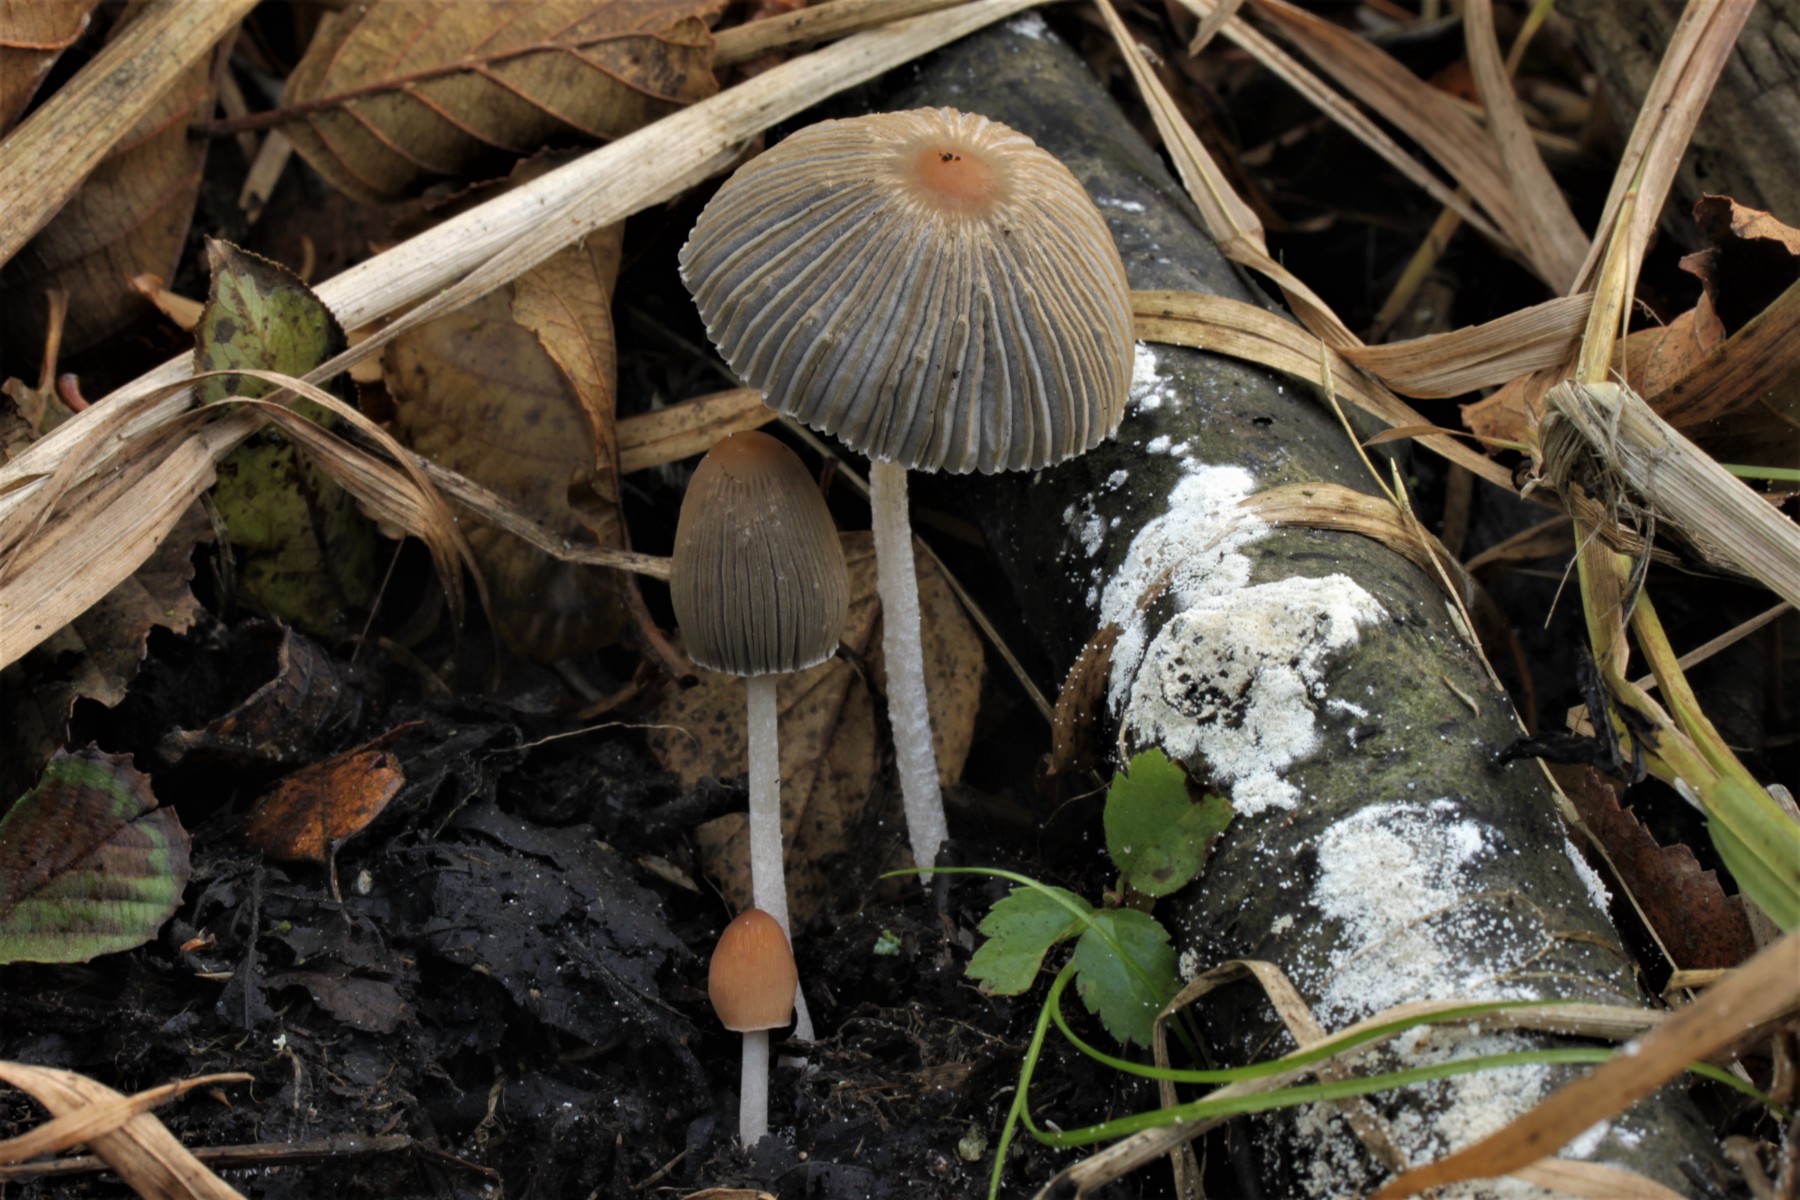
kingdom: Fungi
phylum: Basidiomycota
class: Agaricomycetes
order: Agaricales
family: Psathyrellaceae
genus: Parasola
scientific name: Parasola plicatilis-similis
